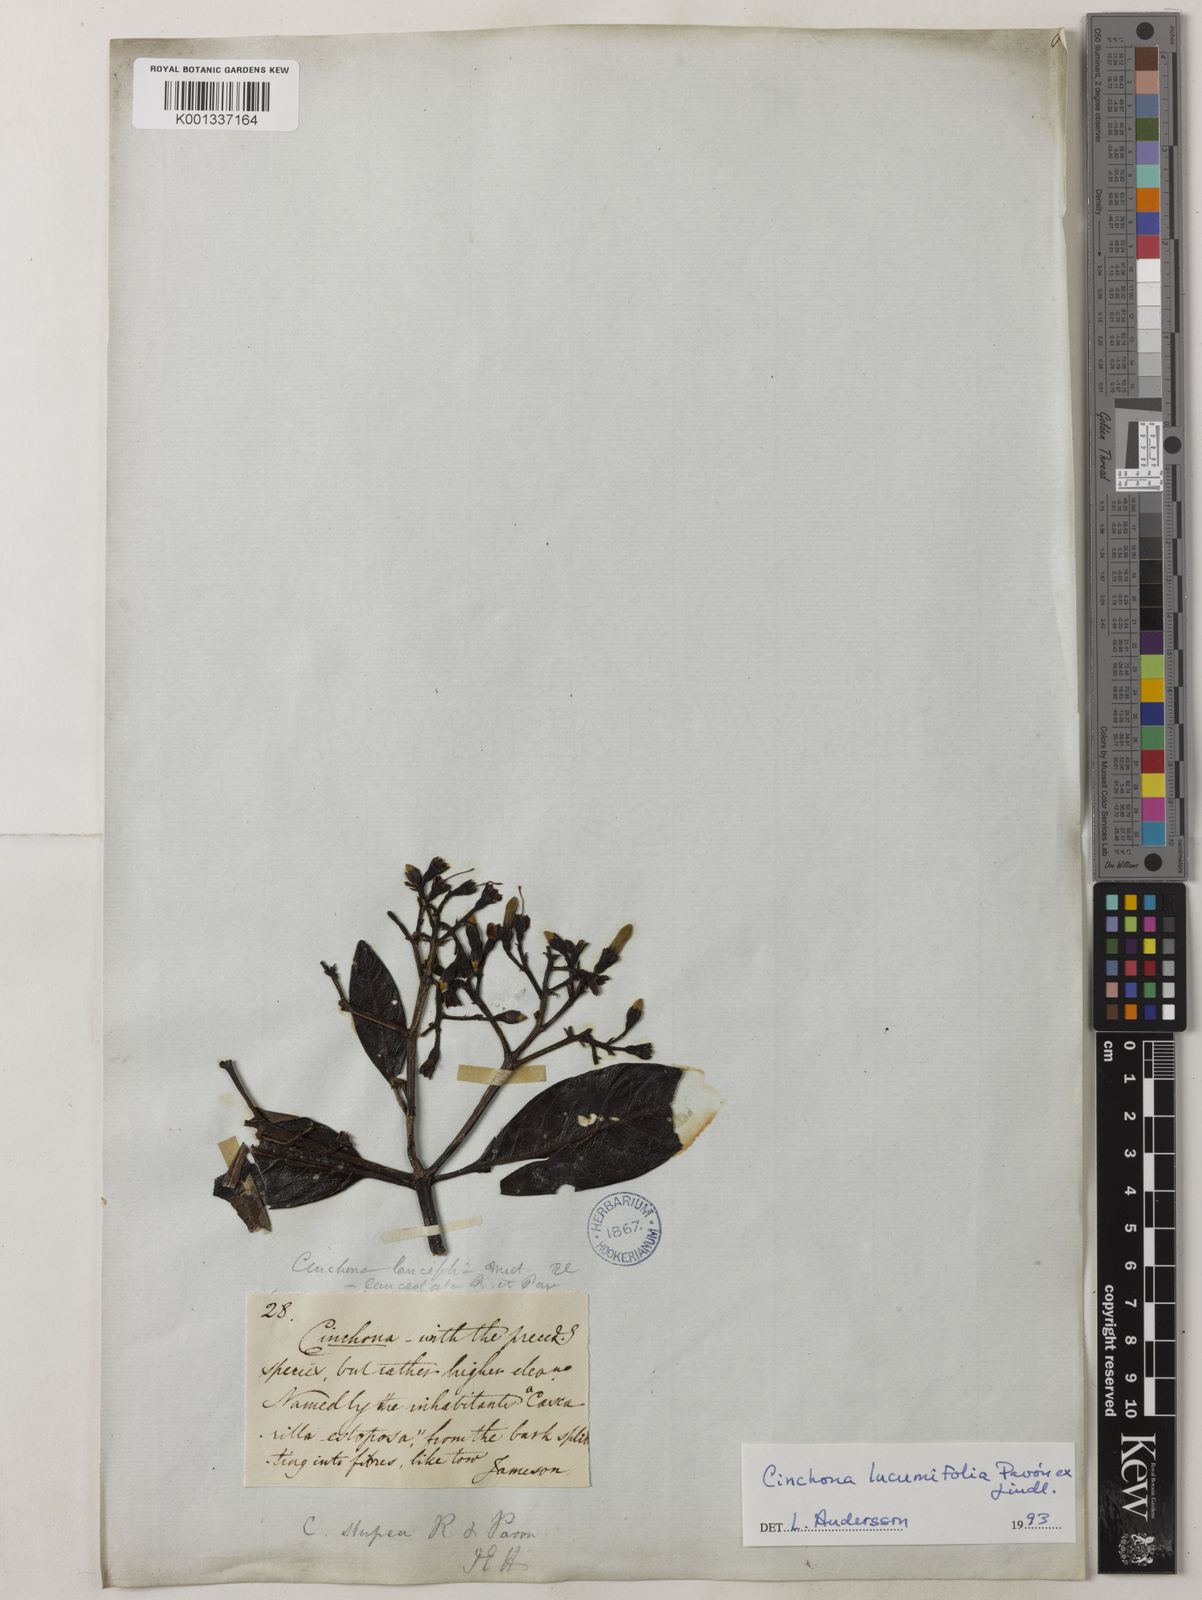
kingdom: Plantae
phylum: Tracheophyta
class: Magnoliopsida
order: Gentianales
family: Rubiaceae
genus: Cinchona
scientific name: Cinchona lucumifolia
